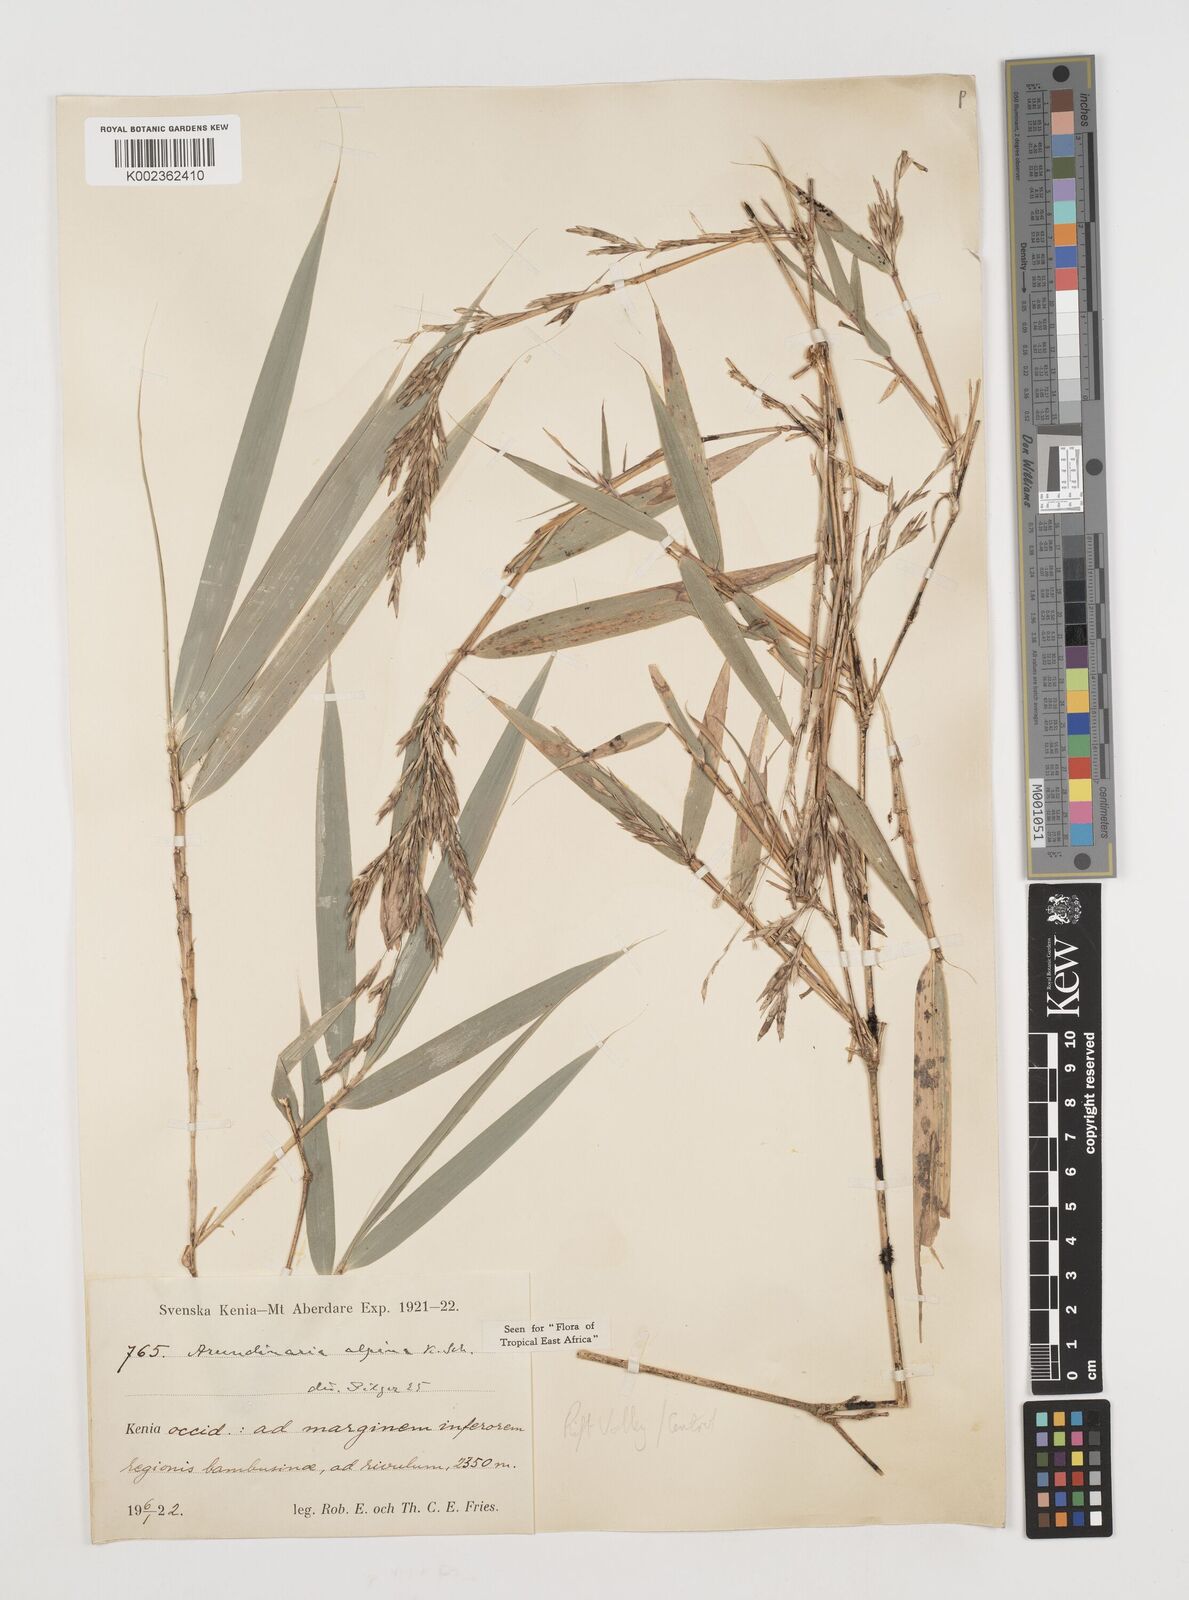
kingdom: Plantae
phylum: Tracheophyta
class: Liliopsida
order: Poales
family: Poaceae
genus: Oldeania
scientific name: Oldeania alpina
